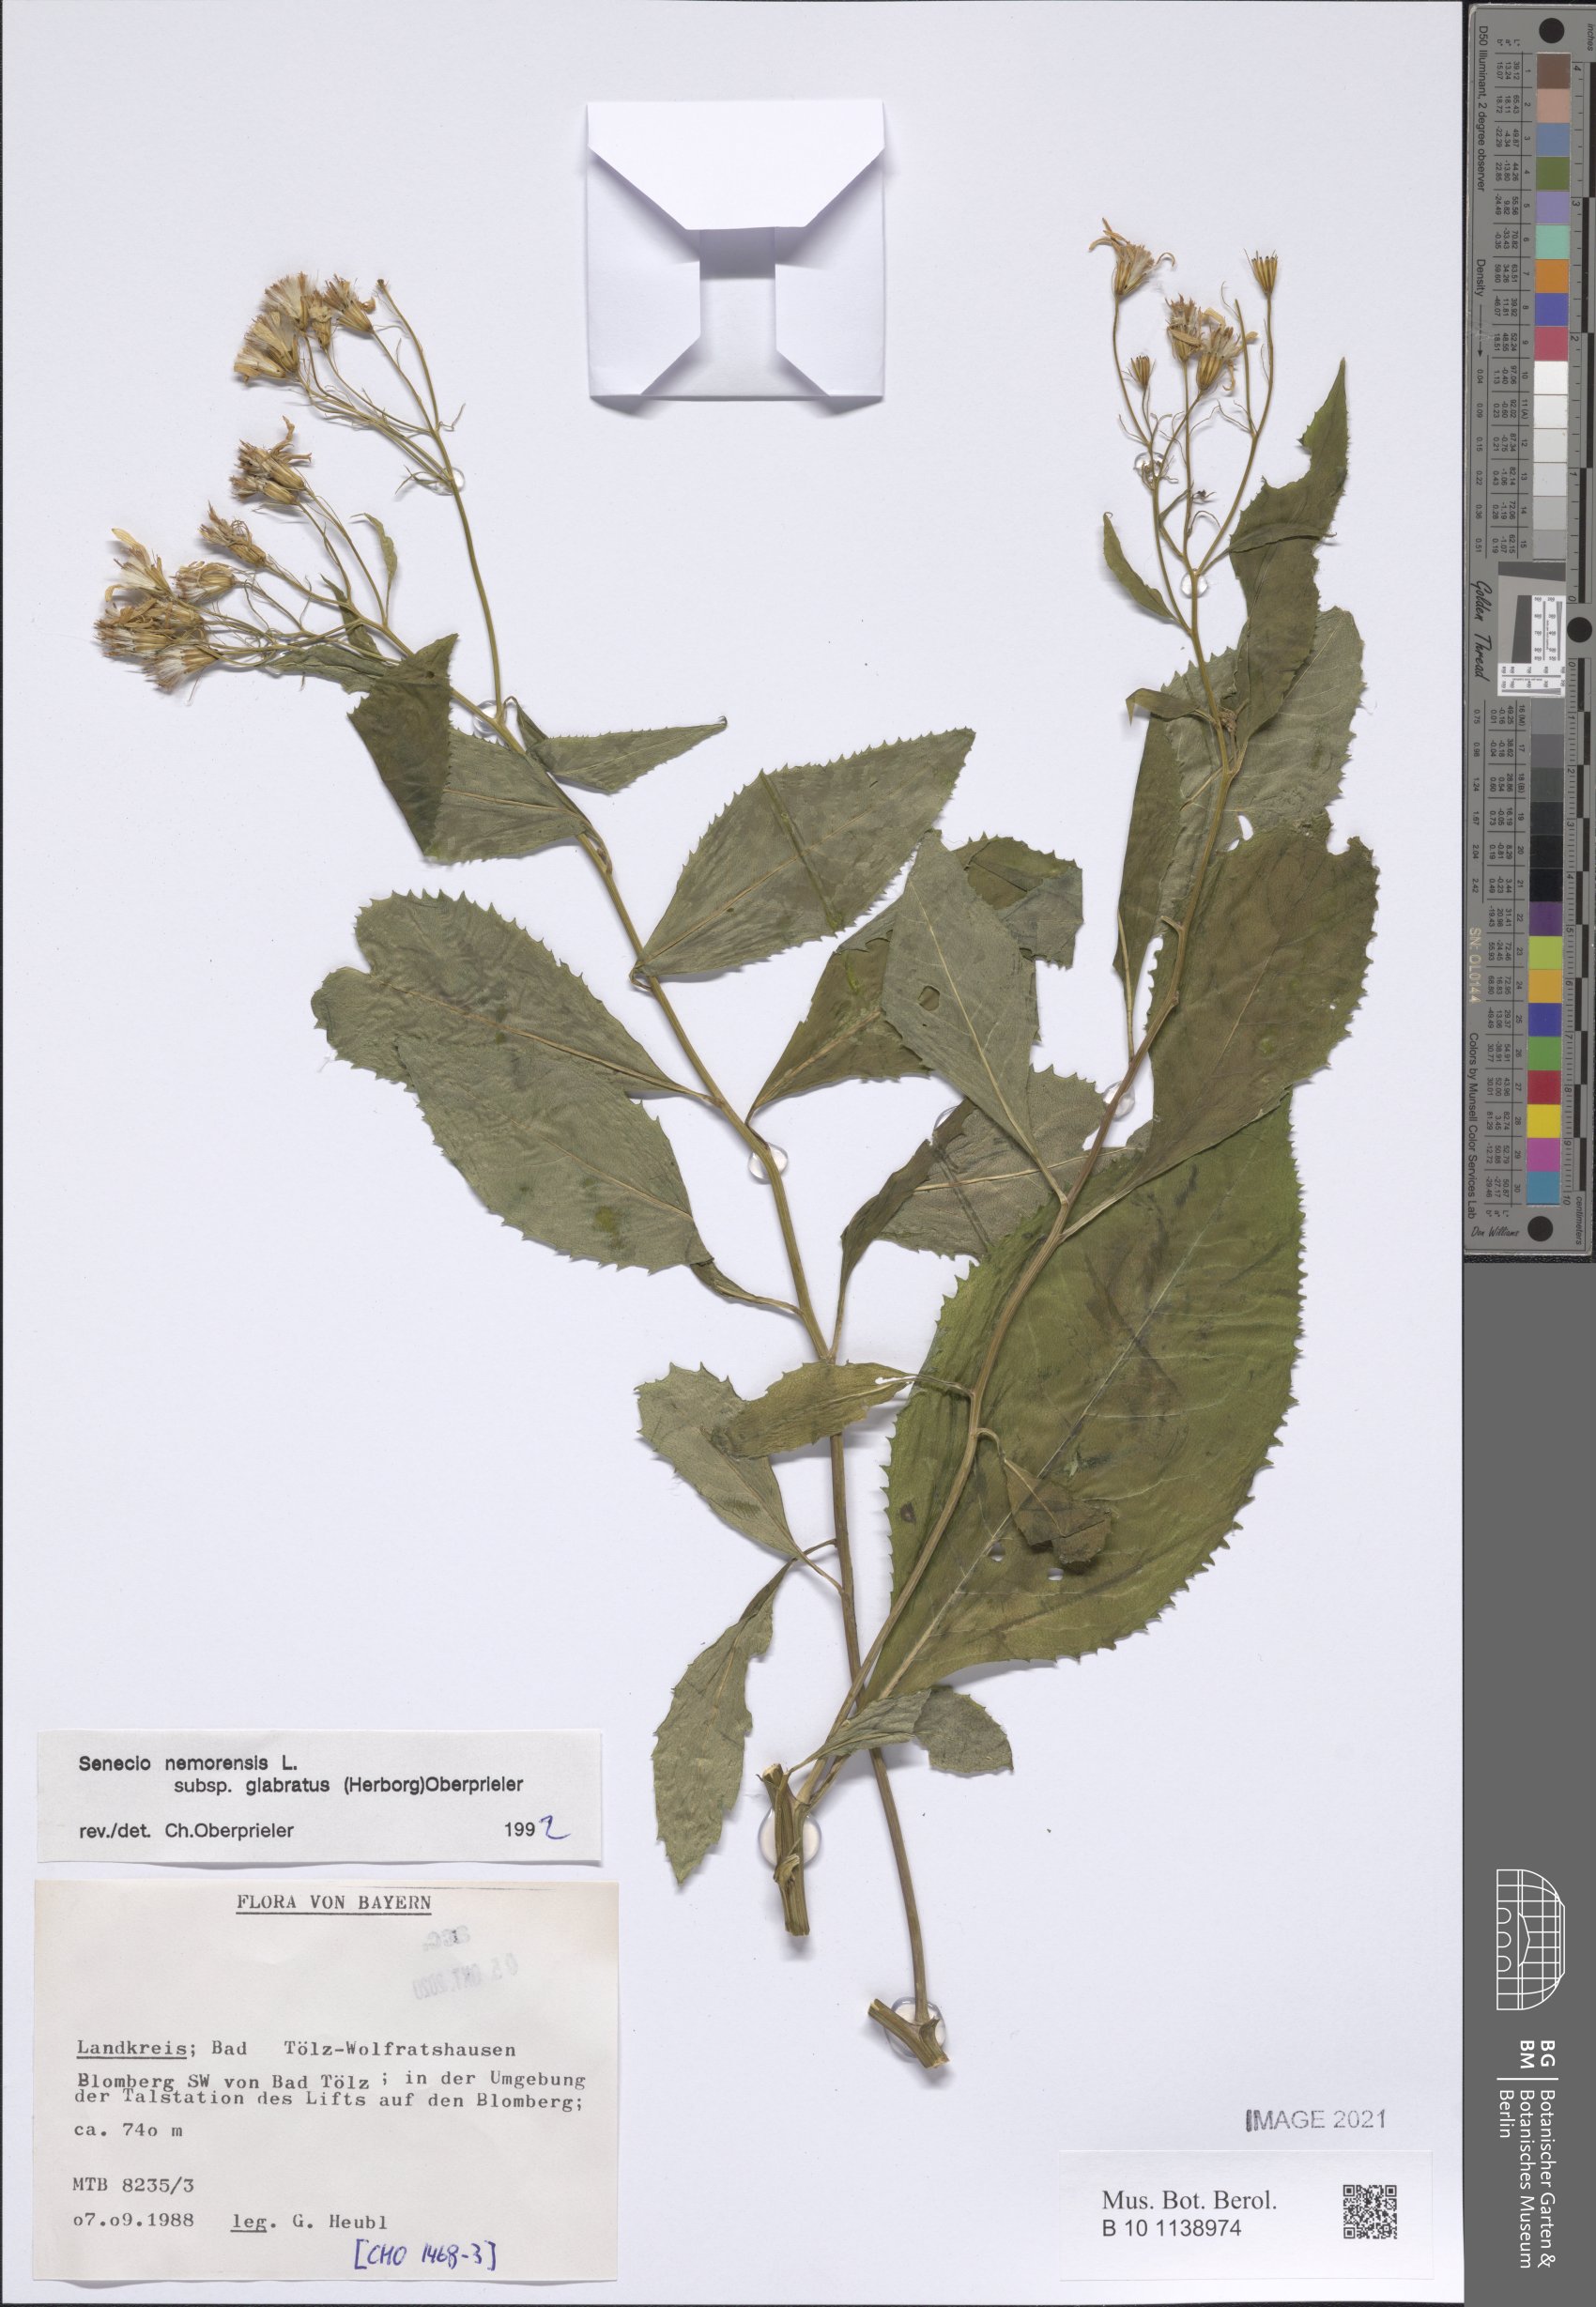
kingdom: Plantae
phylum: Tracheophyta
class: Magnoliopsida
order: Asterales
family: Asteraceae
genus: Senecio
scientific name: Senecio germanicus
